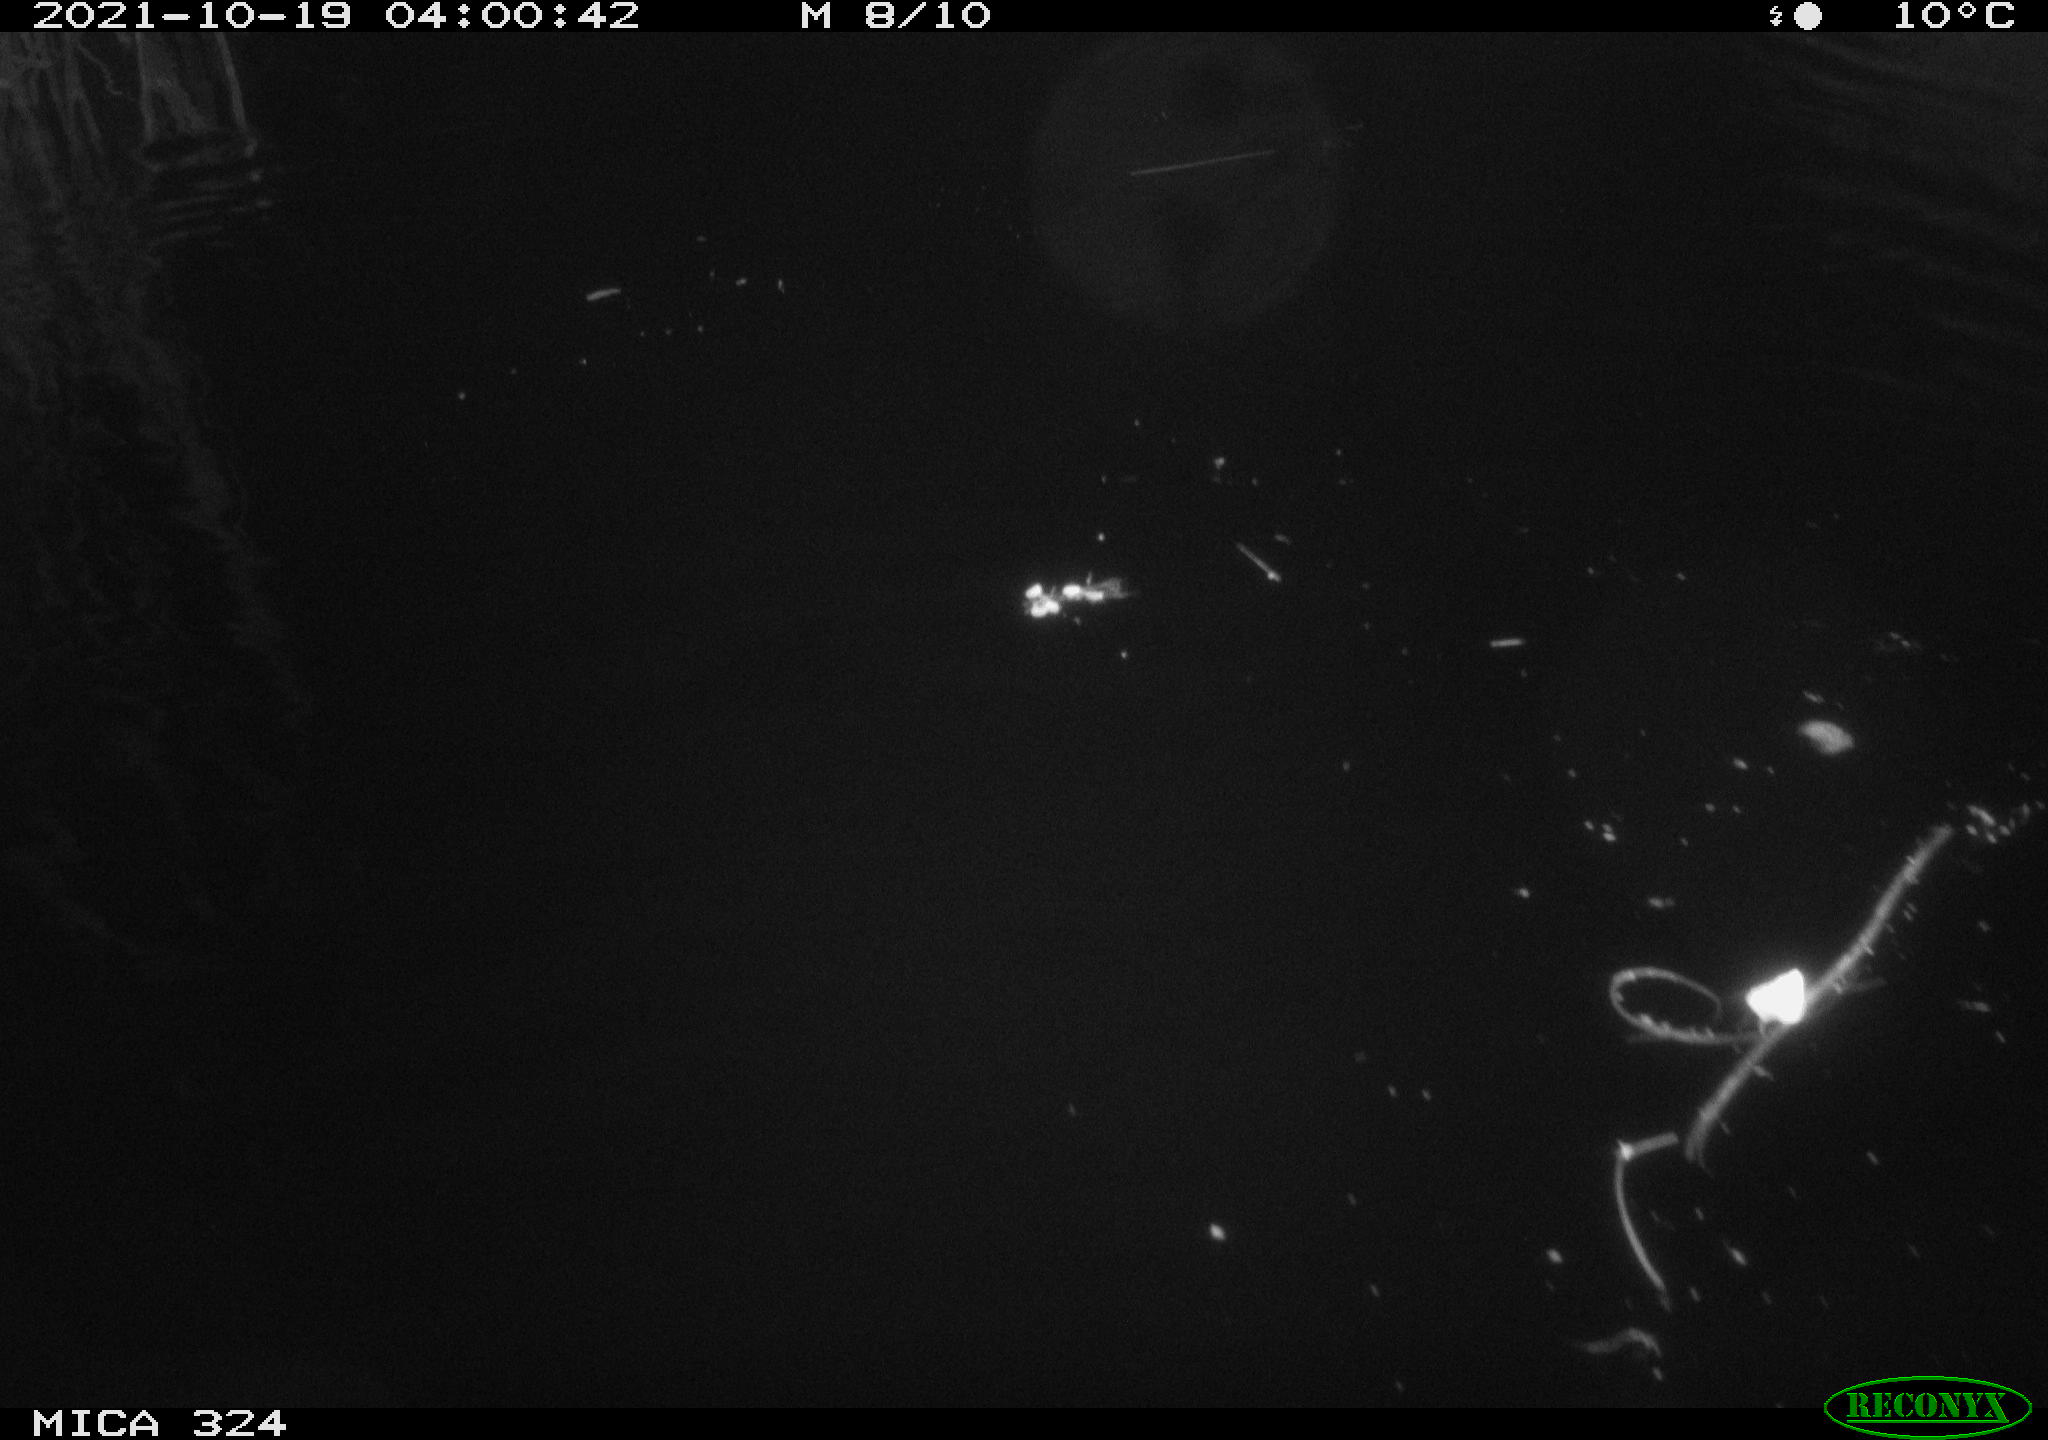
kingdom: Animalia
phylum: Chordata
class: Mammalia
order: Rodentia
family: Cricetidae
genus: Ondatra
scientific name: Ondatra zibethicus
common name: Muskrat
